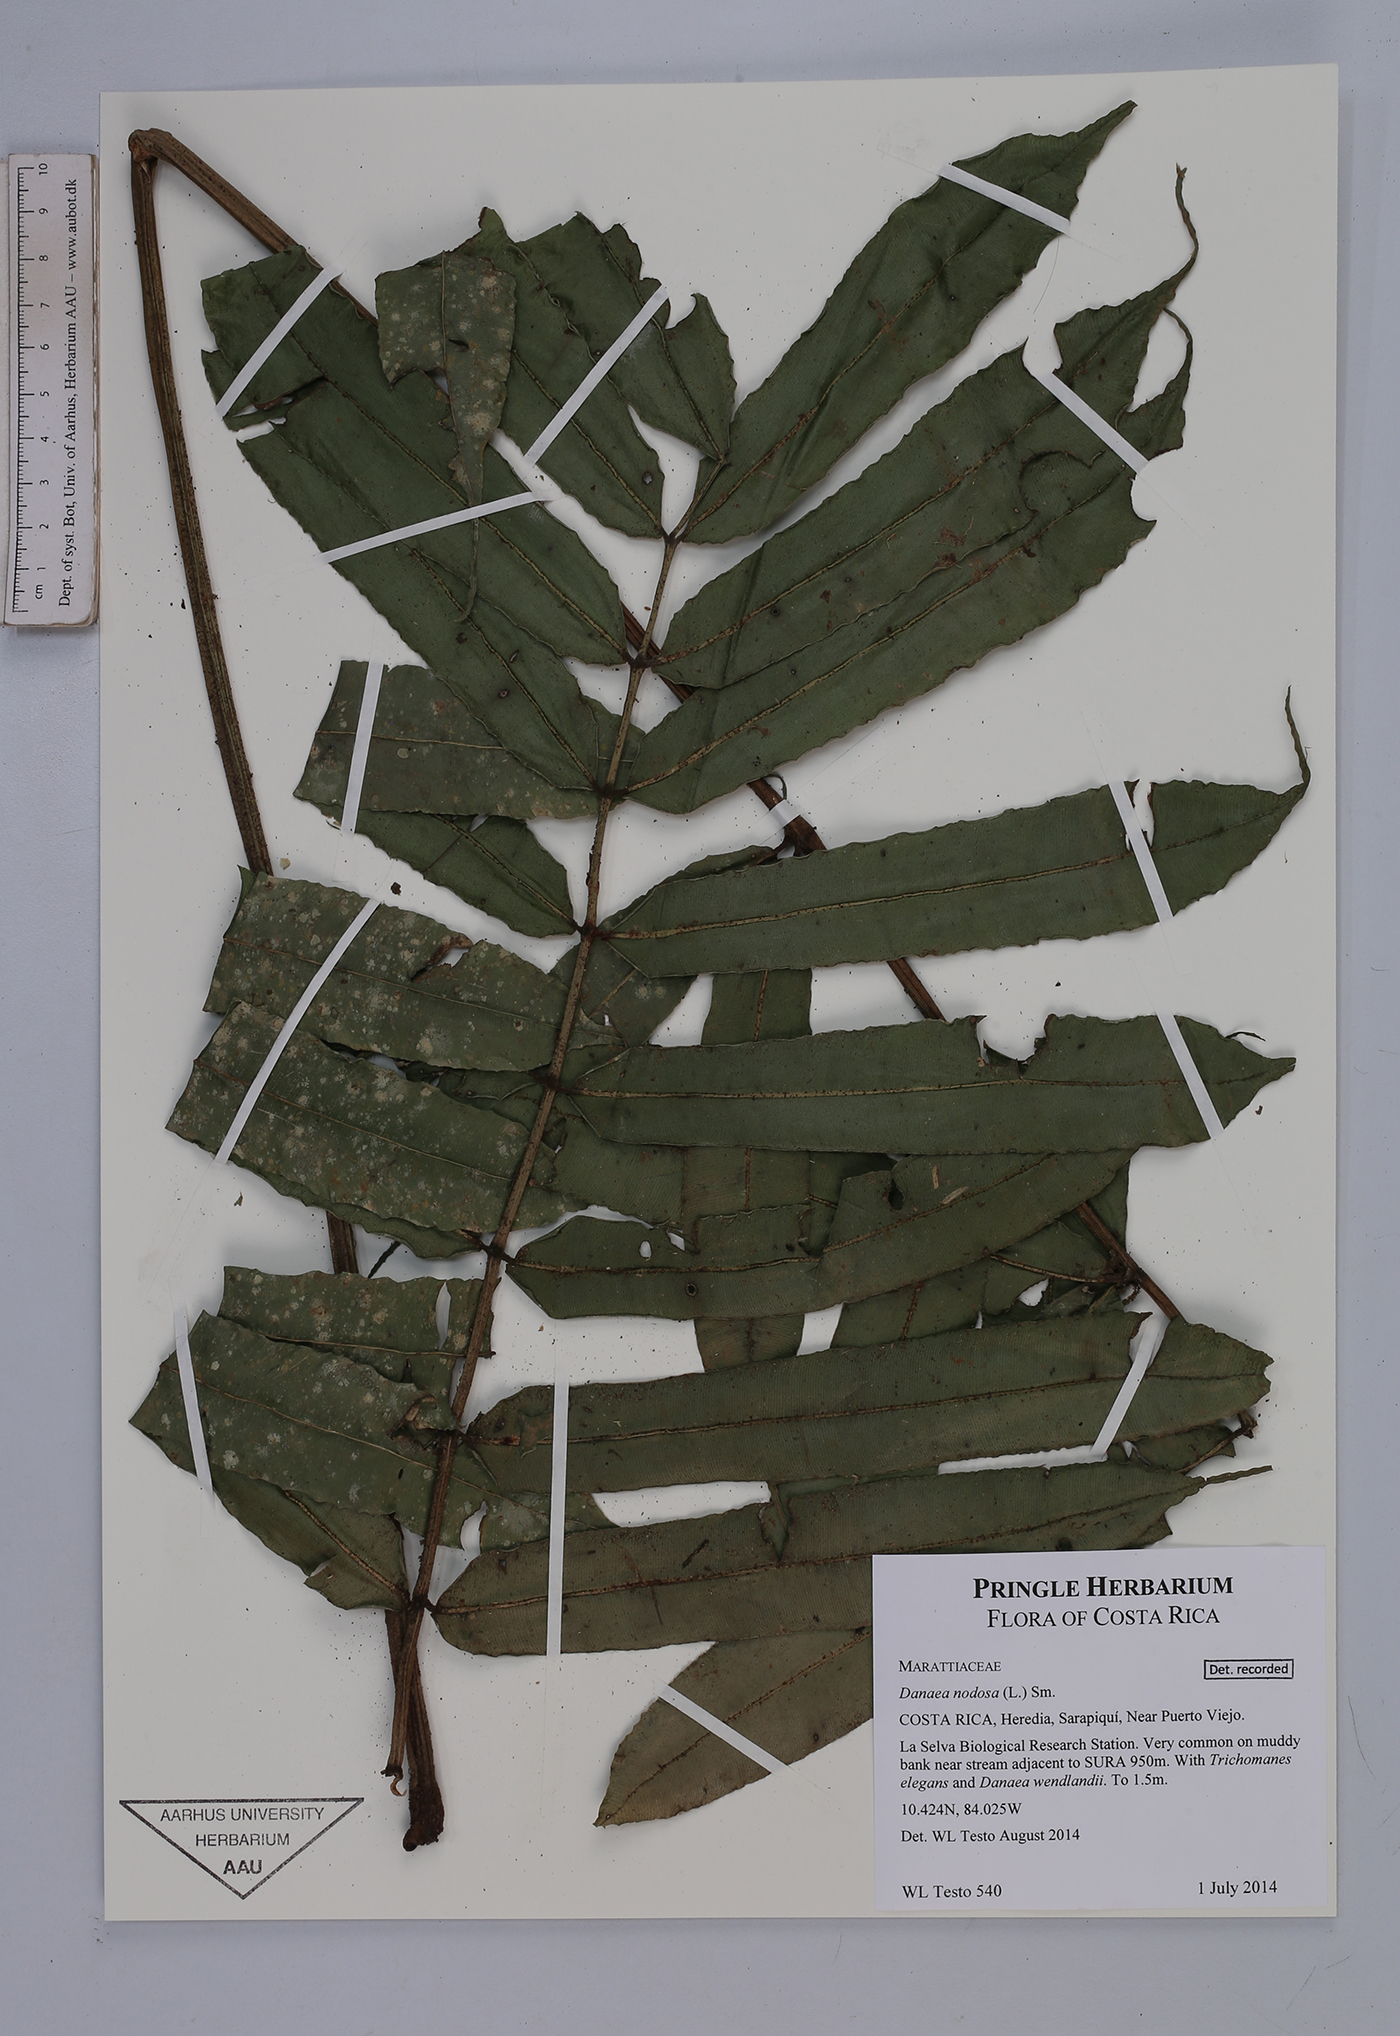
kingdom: Plantae
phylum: Tracheophyta
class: Polypodiopsida
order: Marattiales
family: Marattiaceae
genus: Danaea
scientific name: Danaea nodosa
